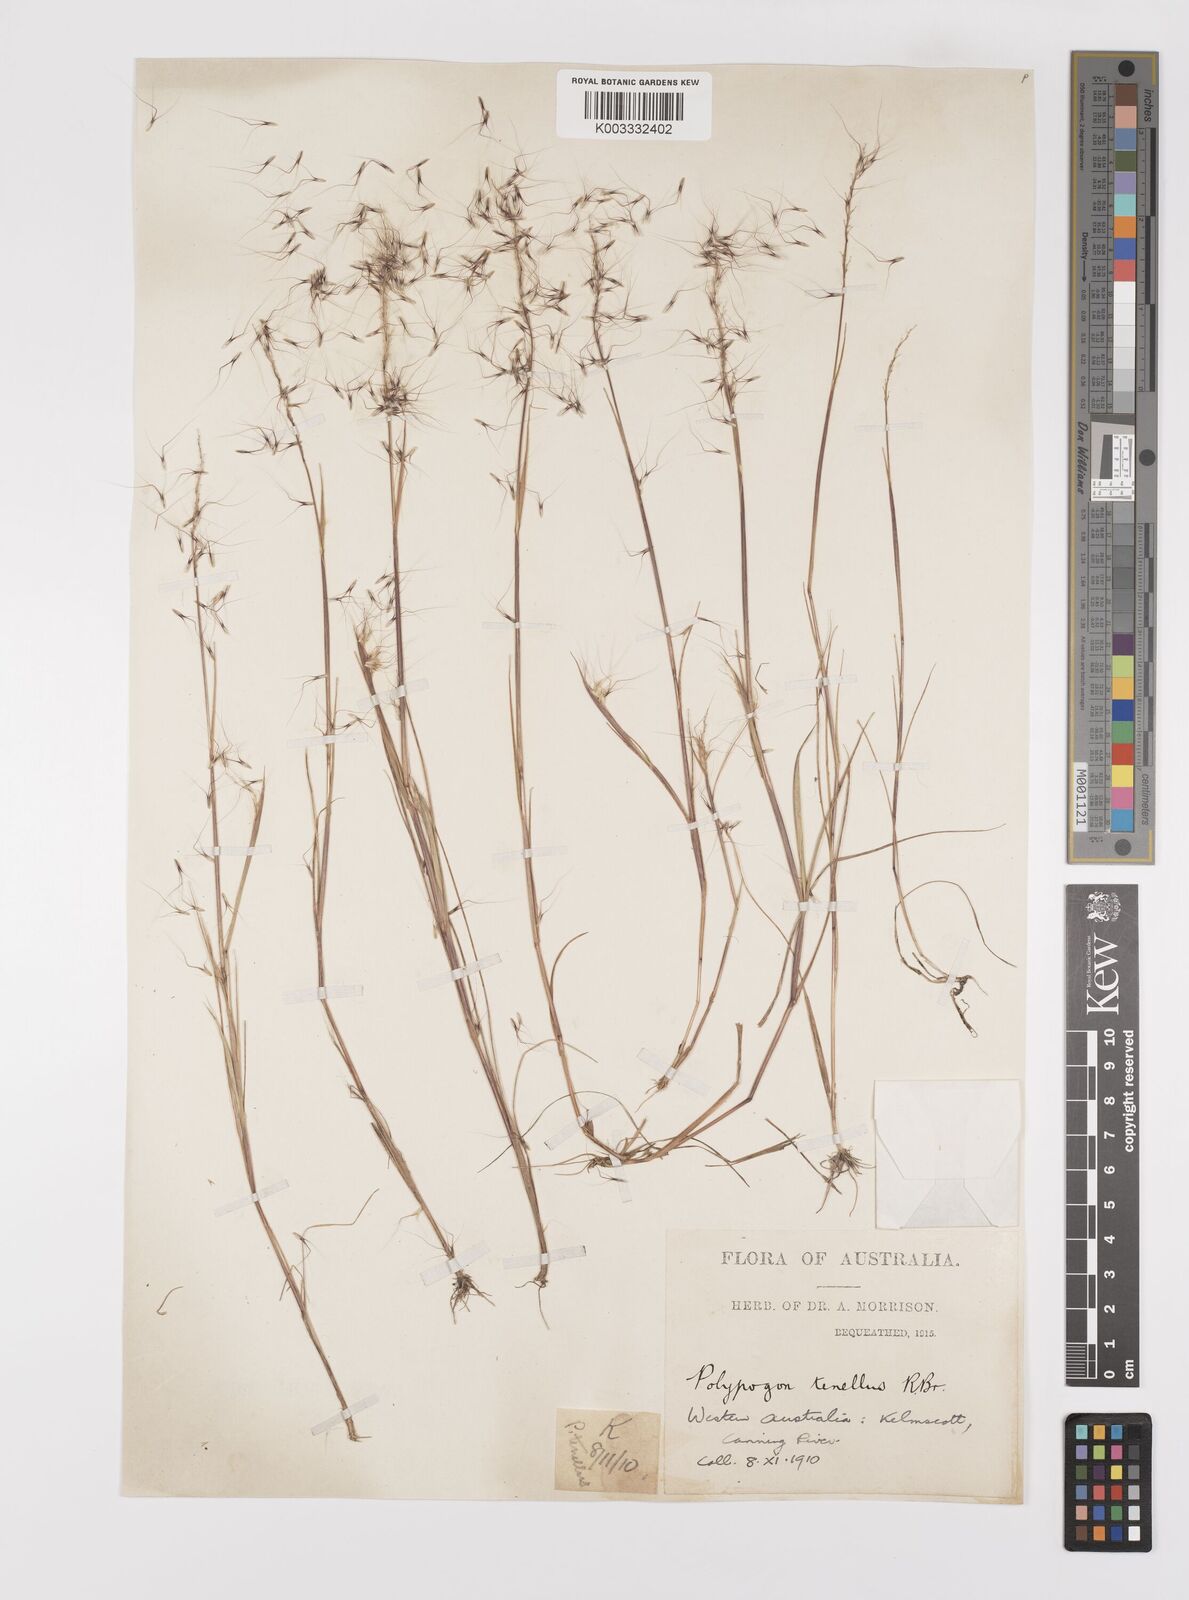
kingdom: Plantae
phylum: Tracheophyta
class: Liliopsida
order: Poales
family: Poaceae
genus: Polypogon
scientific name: Polypogon tenellus
